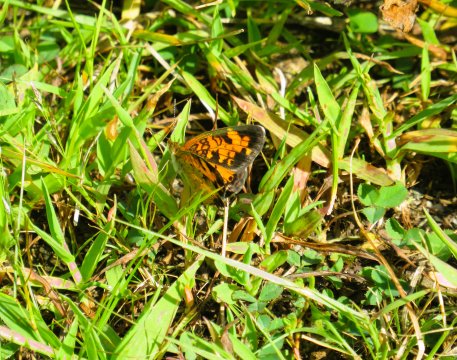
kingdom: Animalia
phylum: Arthropoda
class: Insecta
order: Lepidoptera
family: Nymphalidae
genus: Phyciodes
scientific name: Phyciodes tharos
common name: Pearl Crescent
